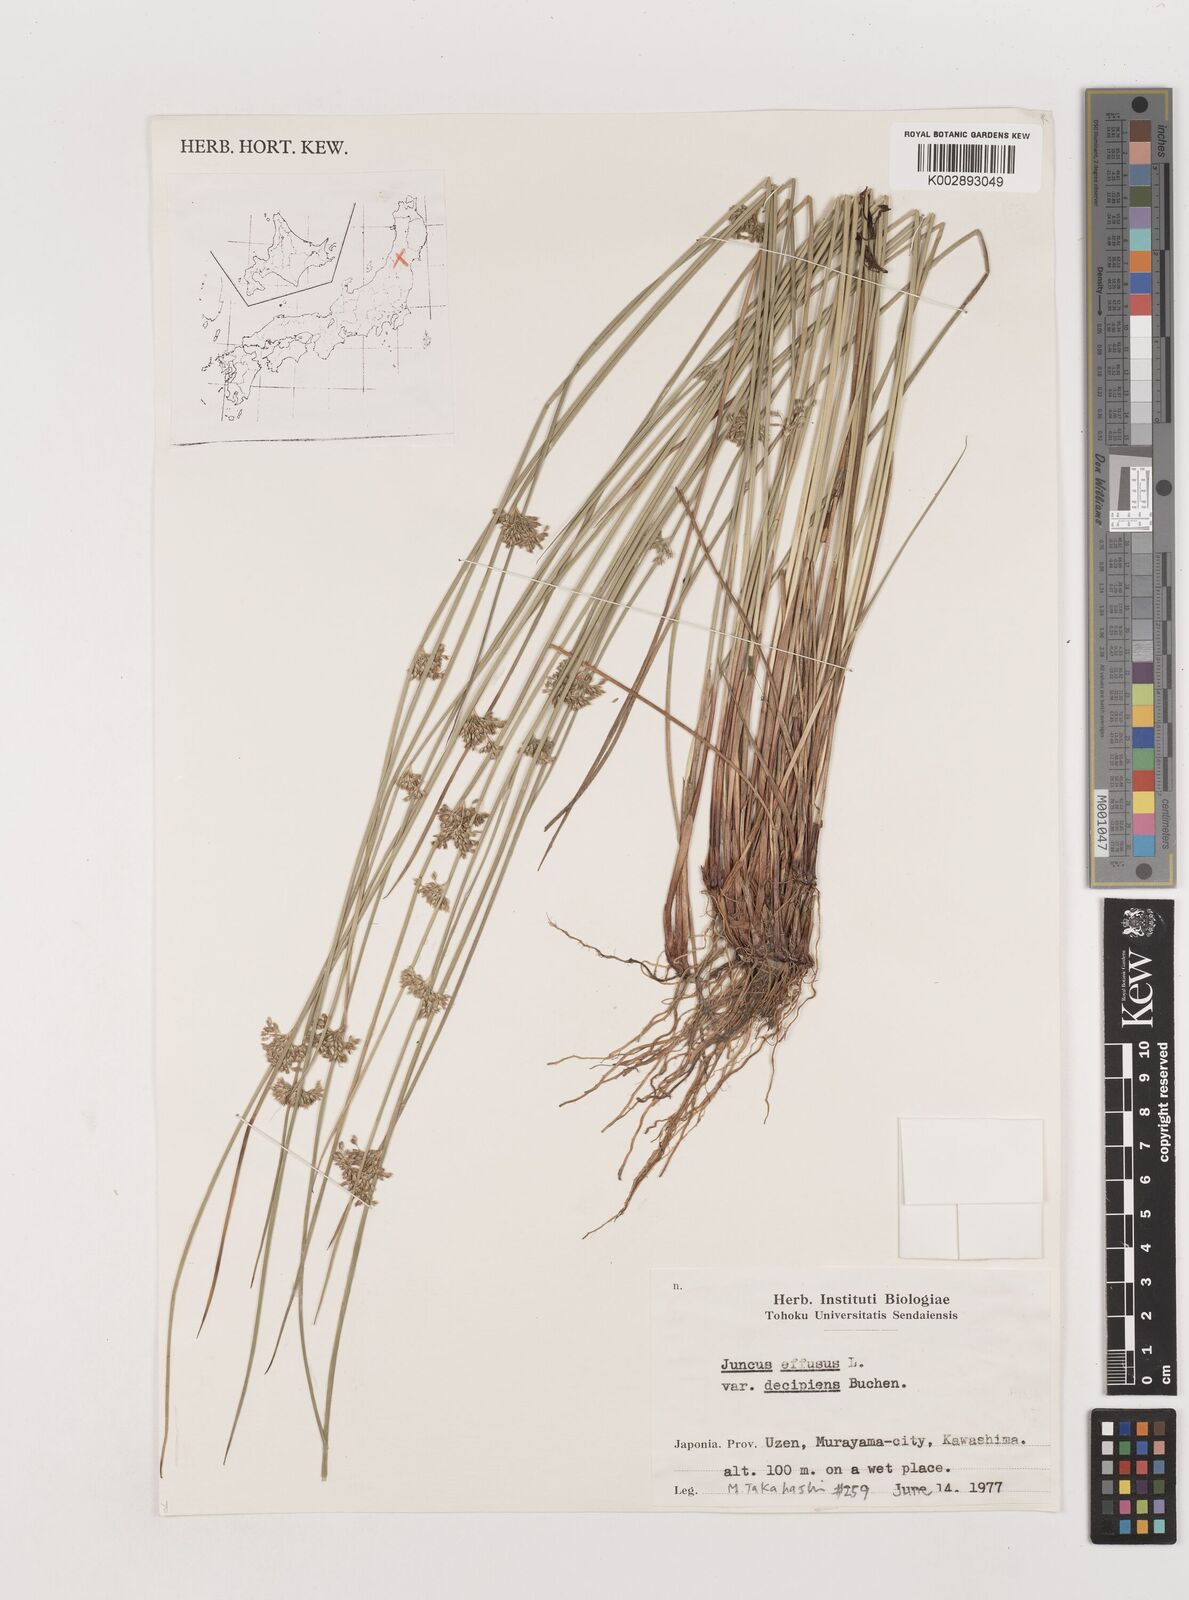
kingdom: Plantae
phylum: Tracheophyta
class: Liliopsida
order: Poales
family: Juncaceae
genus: Juncus
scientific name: Juncus decipiens
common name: Lamp rush
